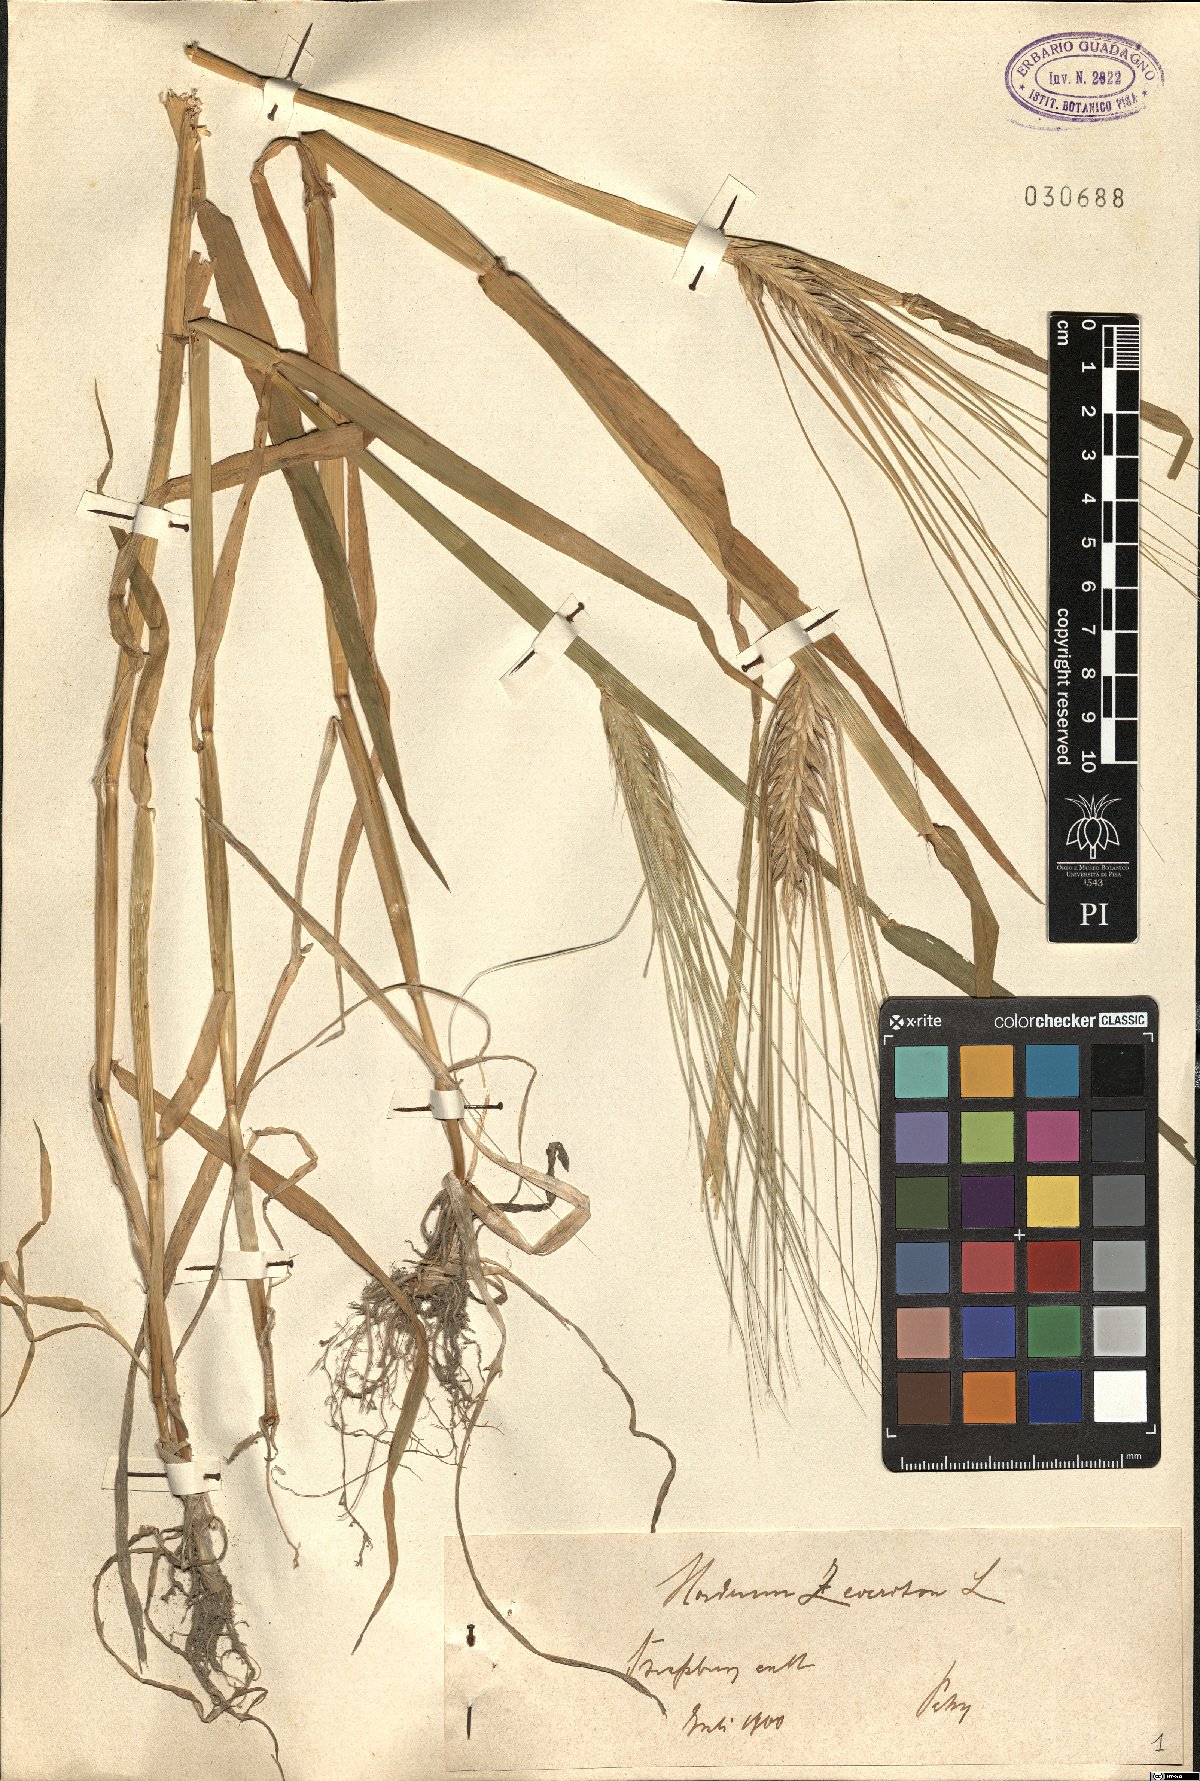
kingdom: Plantae
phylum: Tracheophyta
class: Liliopsida
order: Poales
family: Poaceae
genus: Hordeum
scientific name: Hordeum distichon
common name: Two-rowed barley
